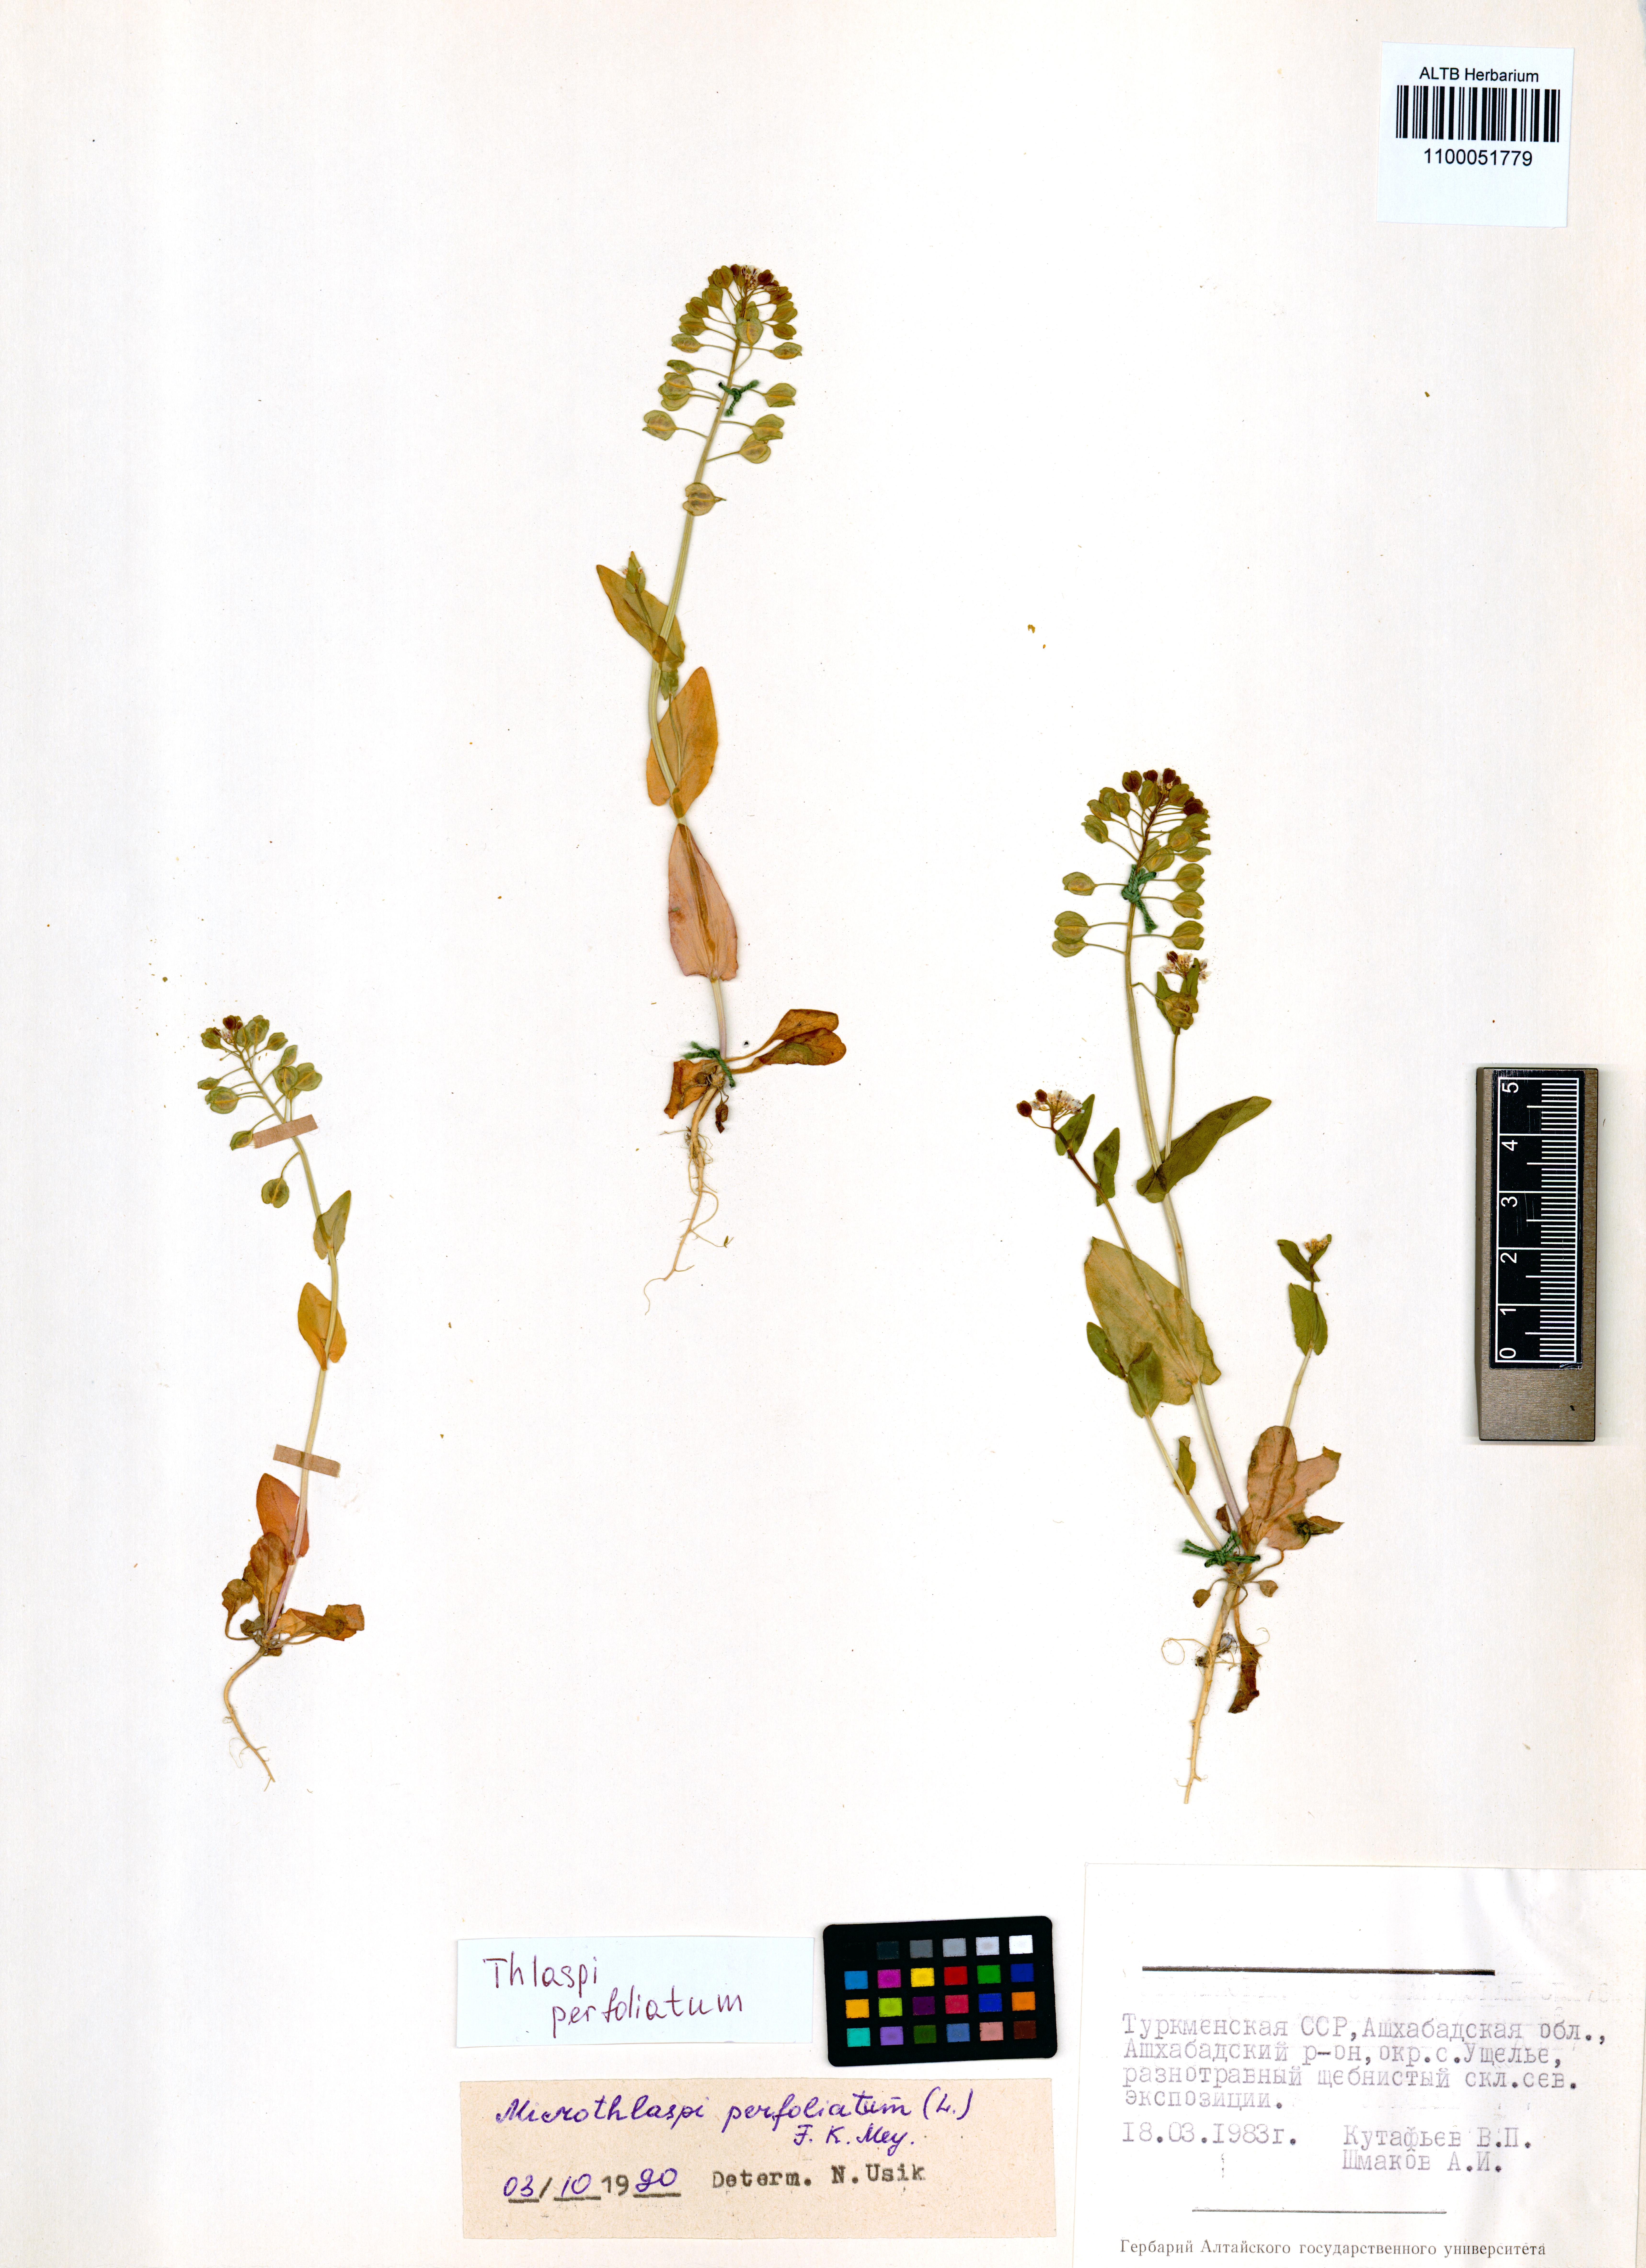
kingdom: Plantae
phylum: Tracheophyta
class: Magnoliopsida
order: Brassicales
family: Brassicaceae
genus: Noccaea
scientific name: Noccaea perfoliata
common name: Perfoliate pennycress
